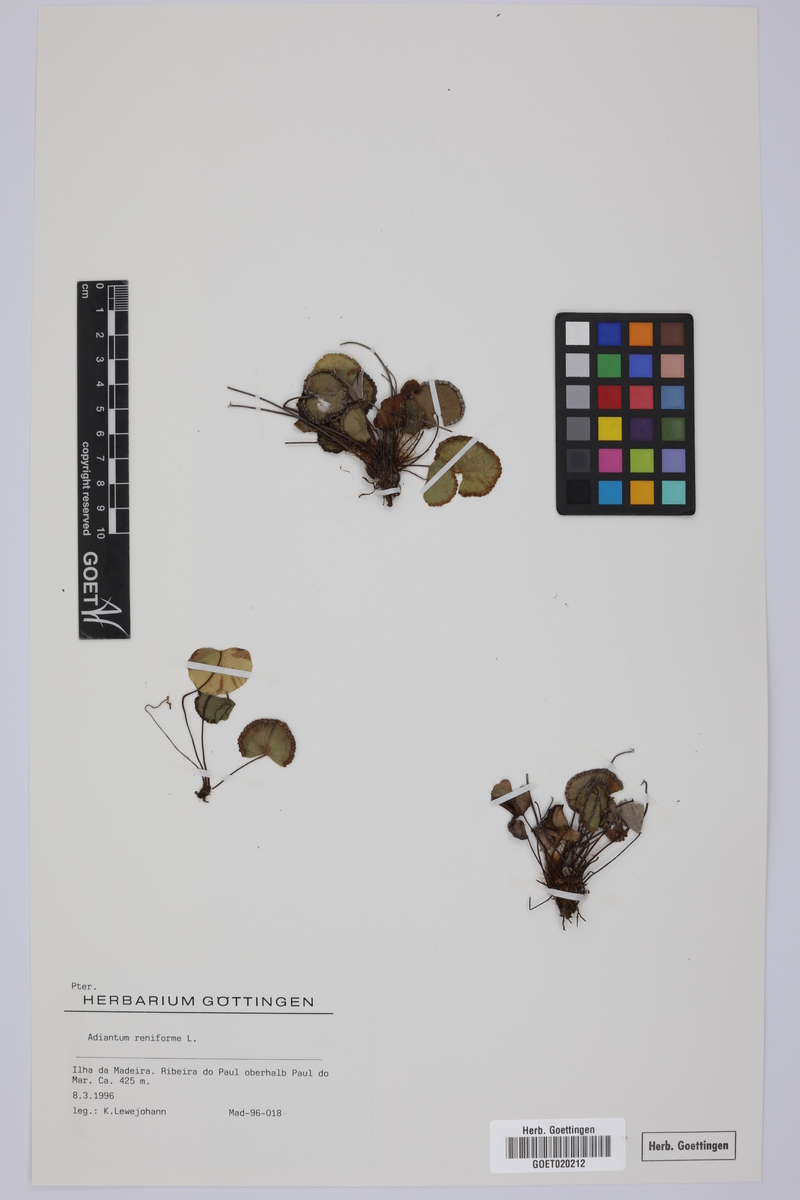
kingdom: Plantae
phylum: Tracheophyta
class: Polypodiopsida
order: Polypodiales
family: Pteridaceae
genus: Adiantum
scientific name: Adiantum reniforme
